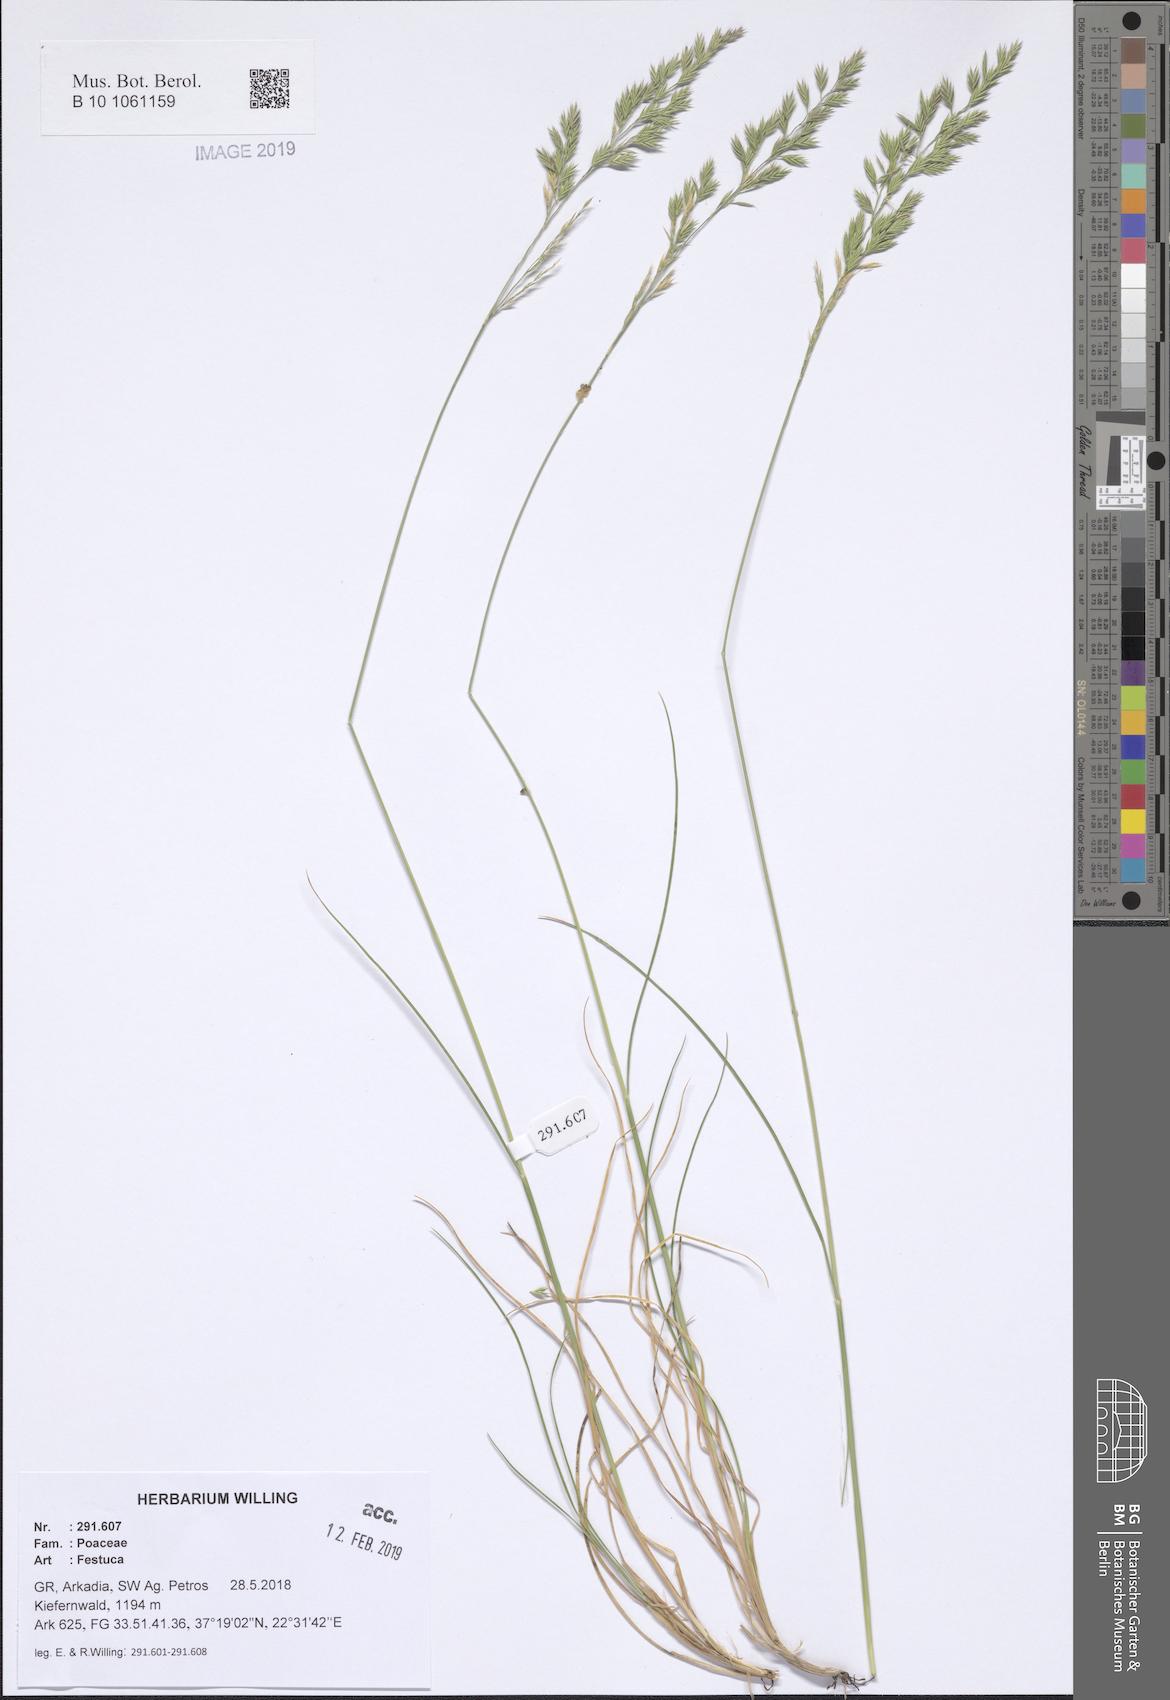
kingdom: Plantae
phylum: Tracheophyta
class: Liliopsida
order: Poales
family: Poaceae
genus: Festuca
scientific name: Festuca
